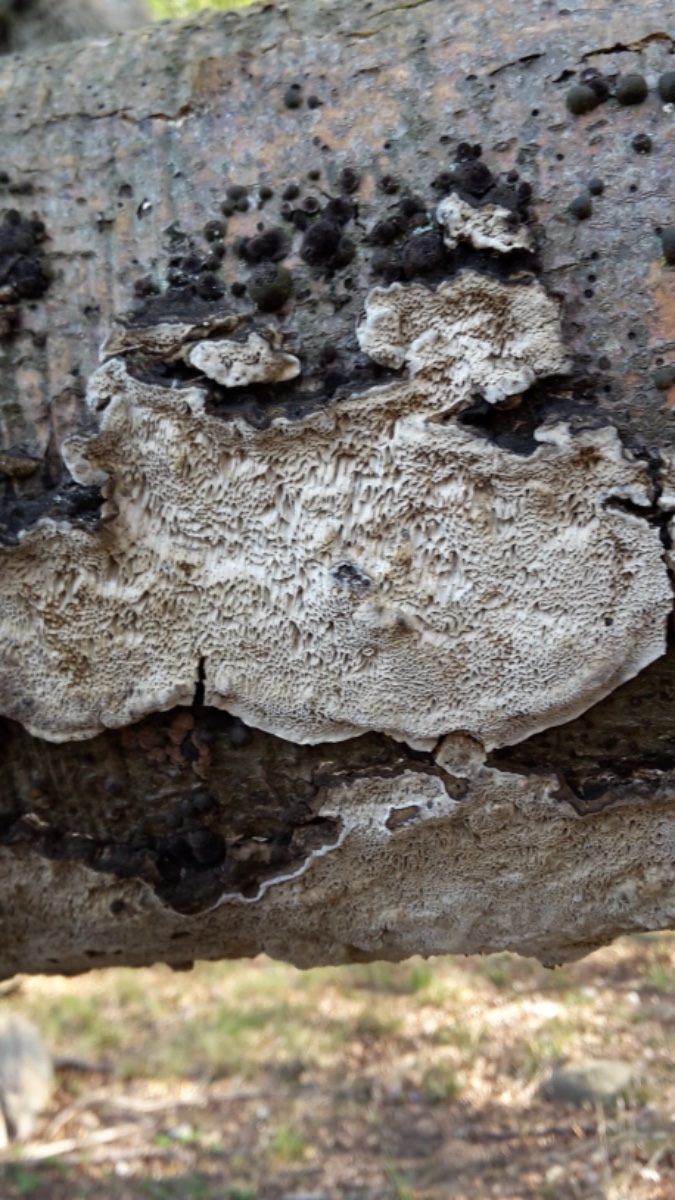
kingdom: Fungi
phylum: Basidiomycota
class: Agaricomycetes
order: Polyporales
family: Polyporaceae
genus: Podofomes
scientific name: Podofomes mollis
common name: blød begporesvamp
